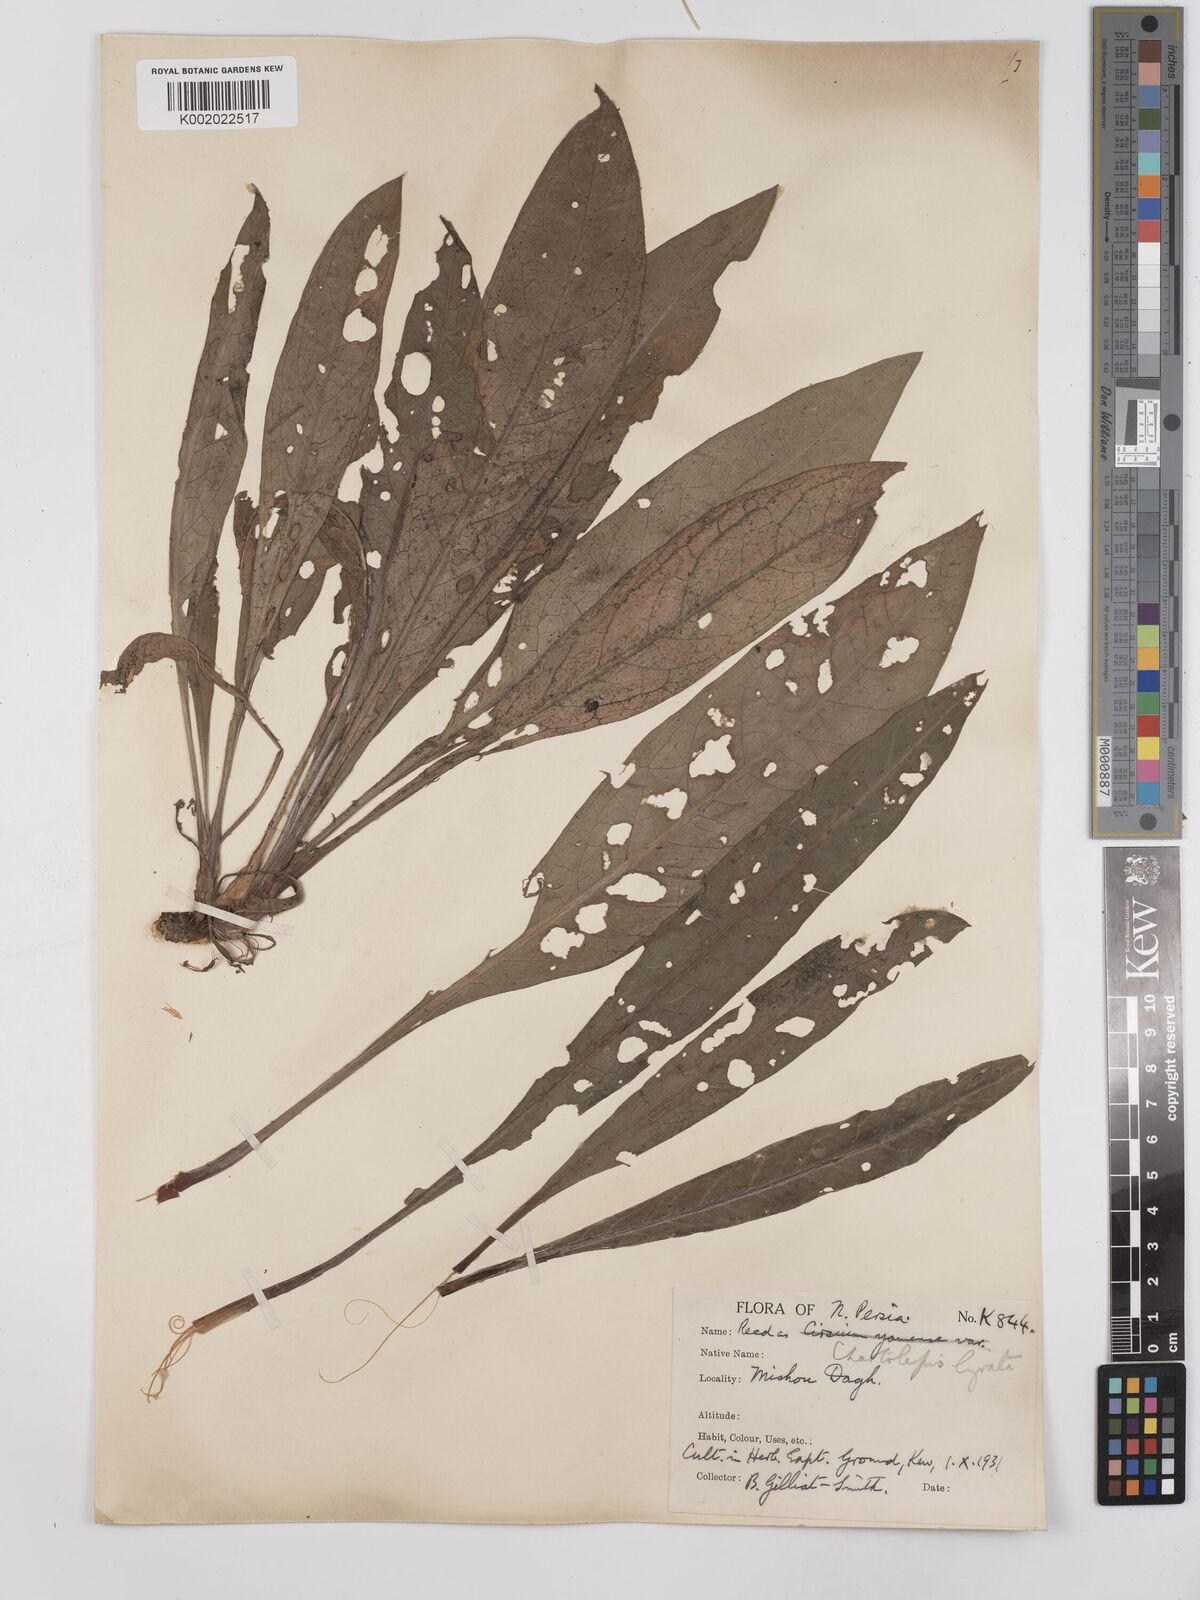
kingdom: Plantae
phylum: Tracheophyta
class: Magnoliopsida
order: Asterales
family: Asteraceae
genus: Centaurea
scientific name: Centaurea pterocaula
